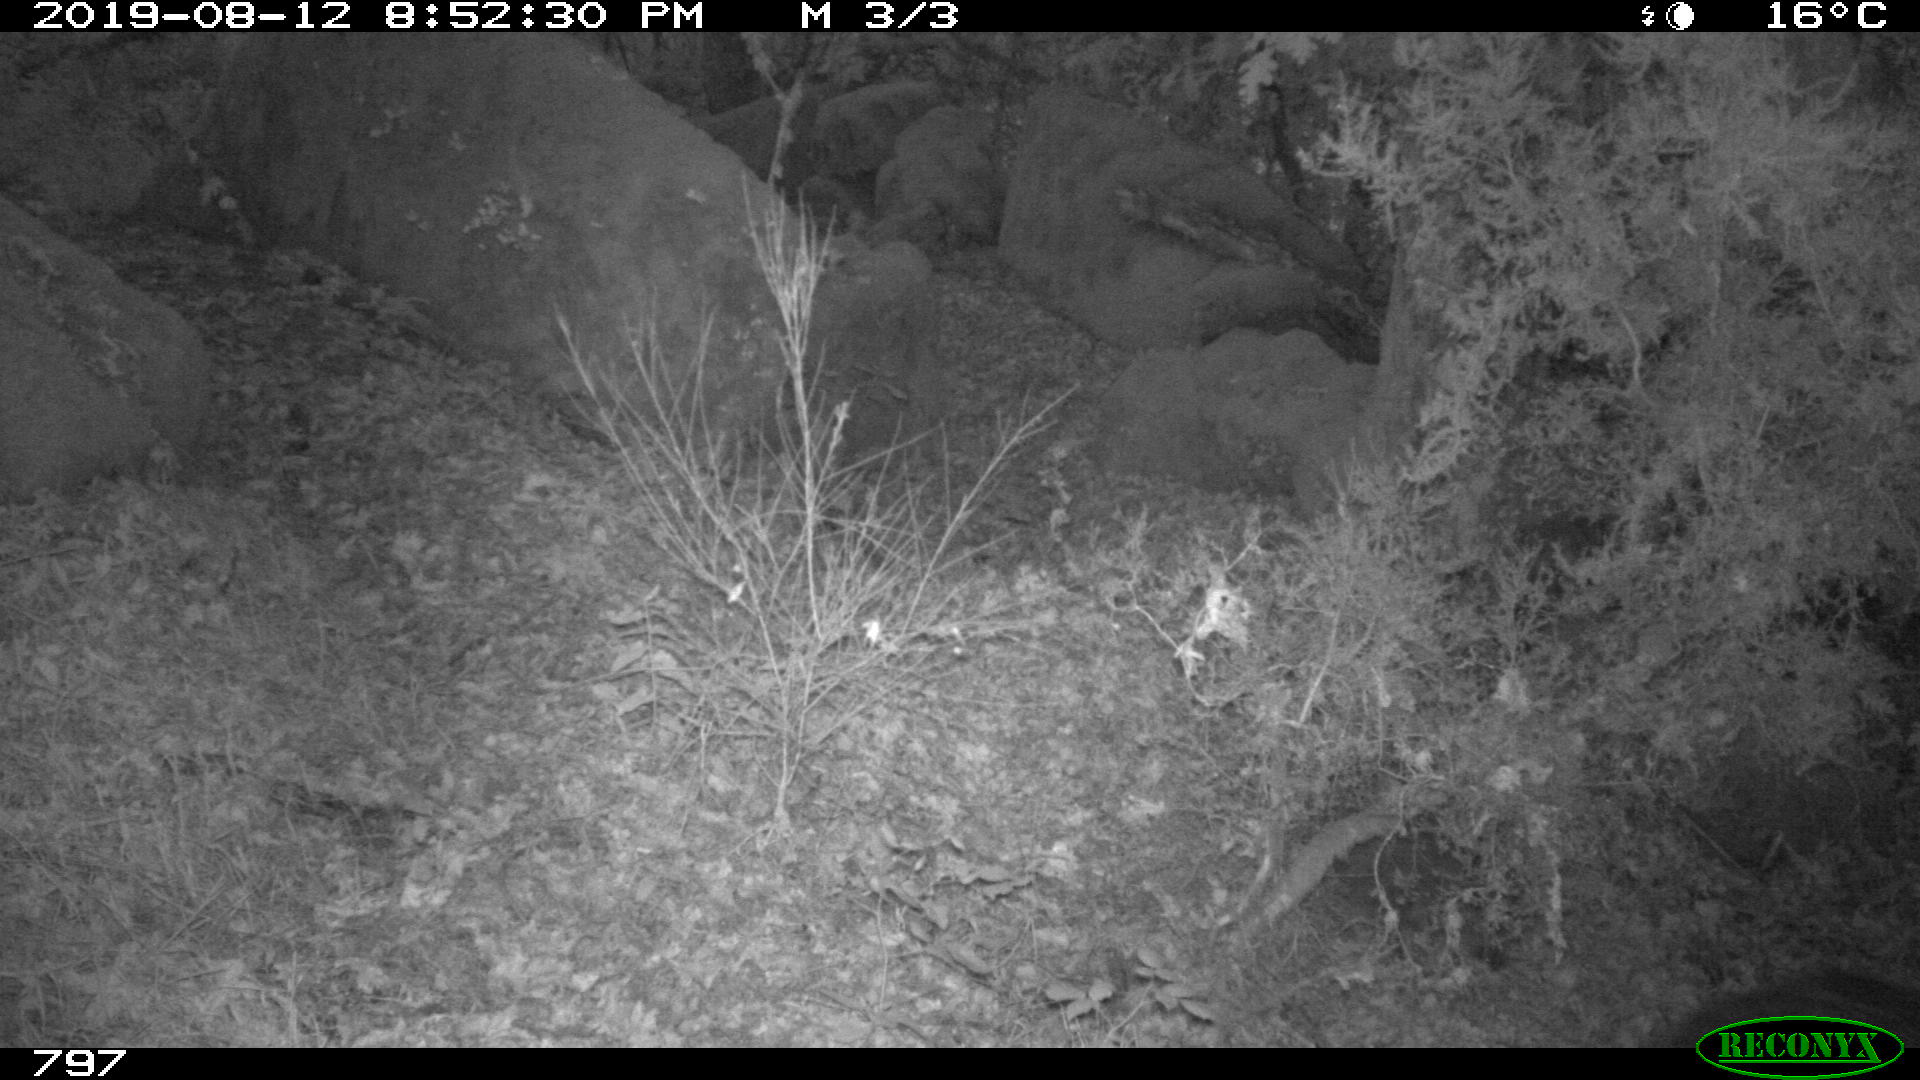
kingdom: Animalia
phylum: Chordata
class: Mammalia
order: Artiodactyla
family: Suidae
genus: Sus
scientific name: Sus scrofa
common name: Wild boar
